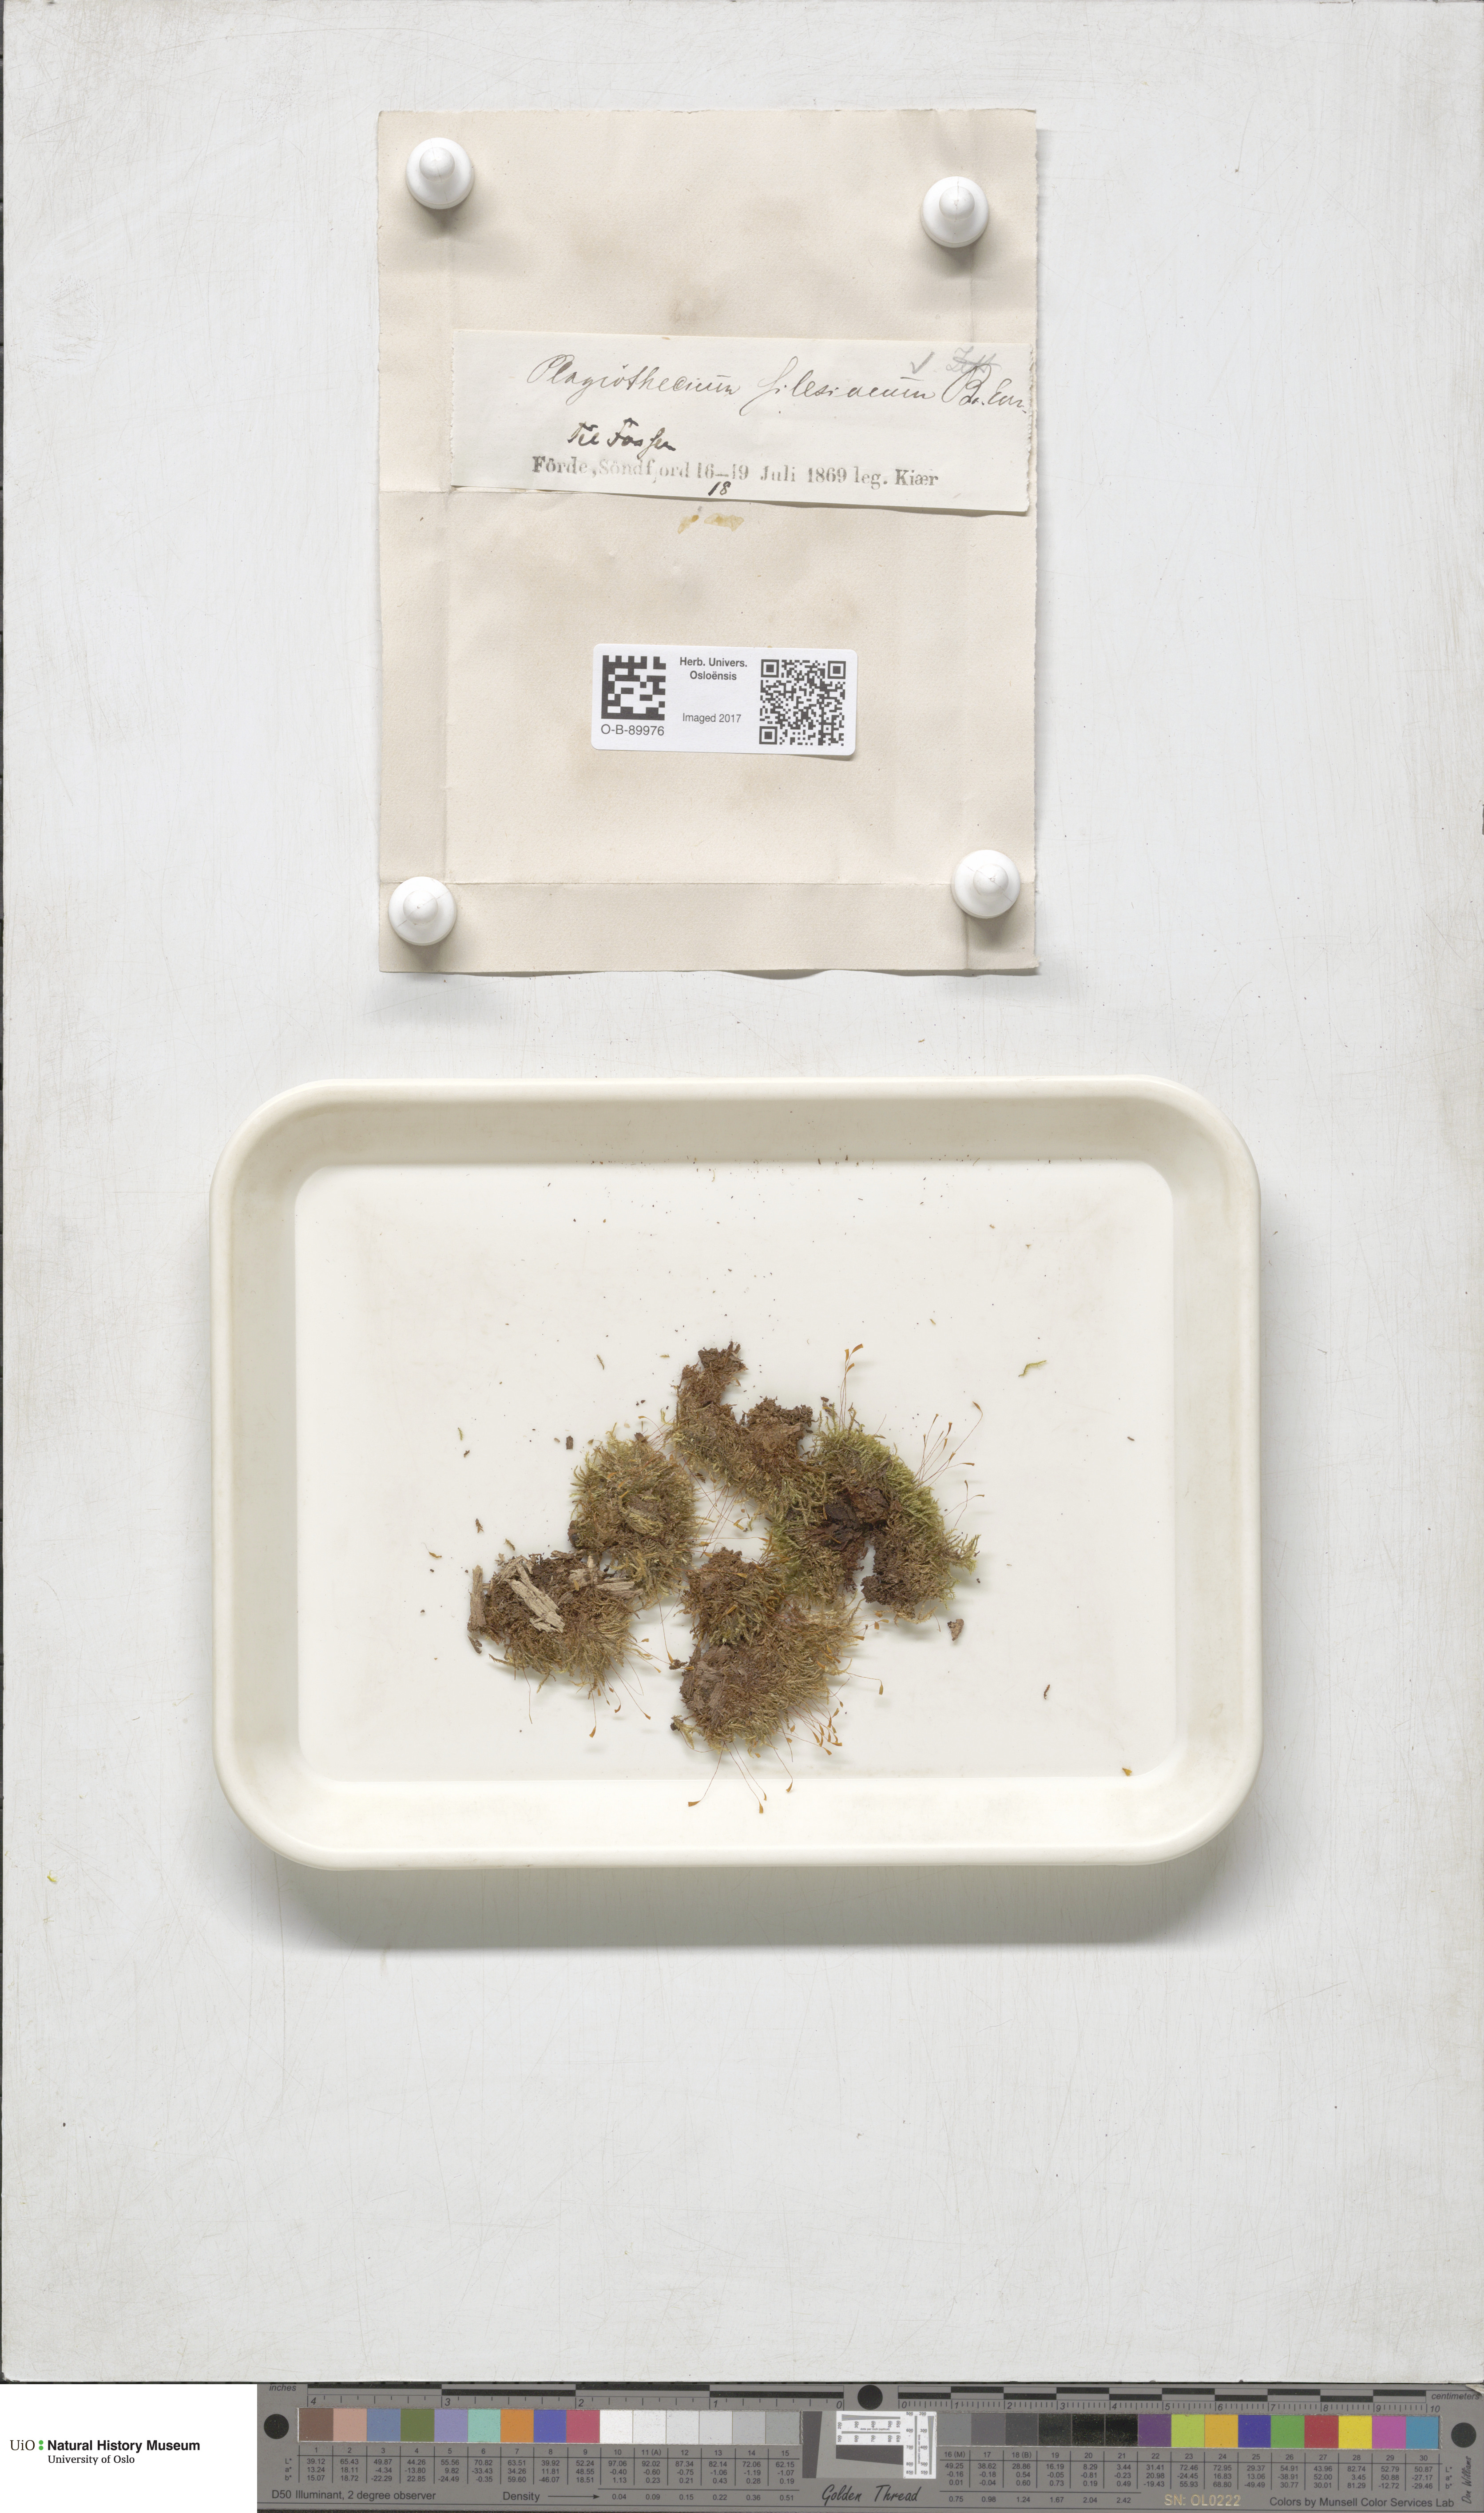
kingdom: Plantae
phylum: Bryophyta
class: Bryopsida
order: Hypnales
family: Plagiotheciaceae
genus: Herzogiella
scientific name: Herzogiella seligeri
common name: Silesian feather-moss
